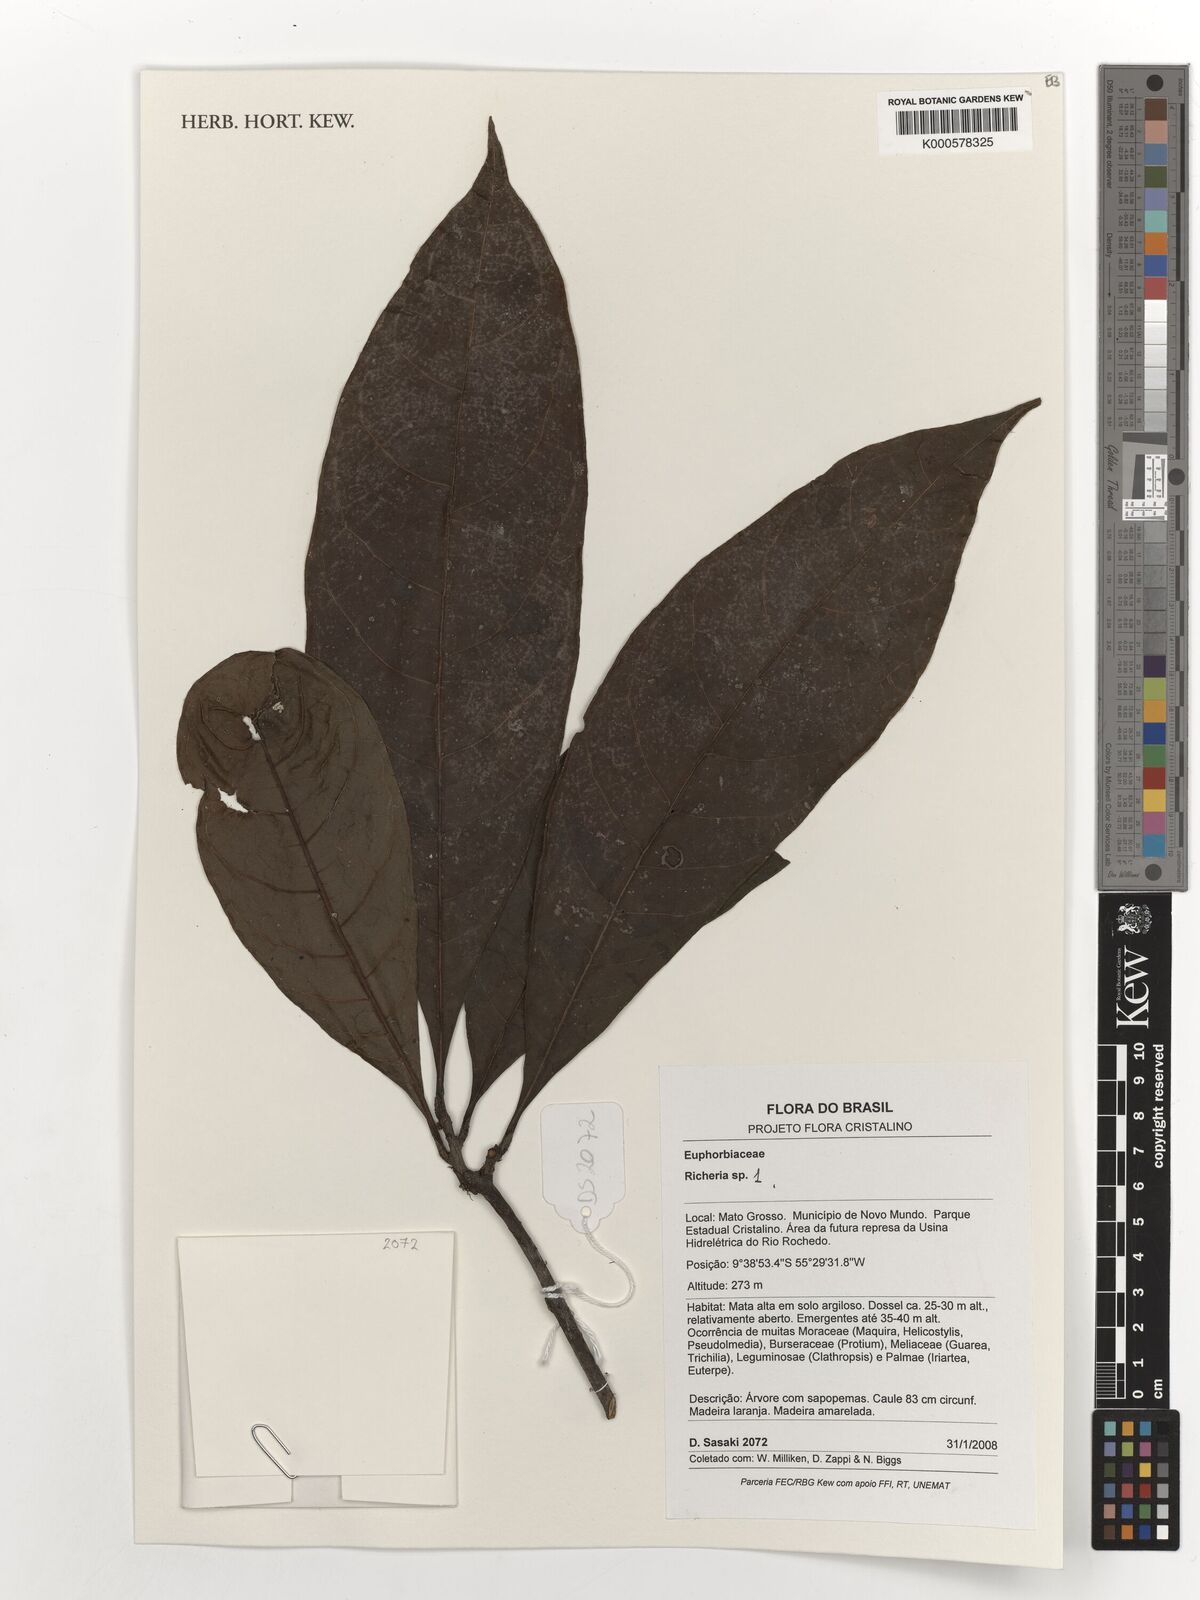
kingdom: Plantae
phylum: Tracheophyta
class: Magnoliopsida
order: Malpighiales
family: Phyllanthaceae
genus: Richeria
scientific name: Richeria
